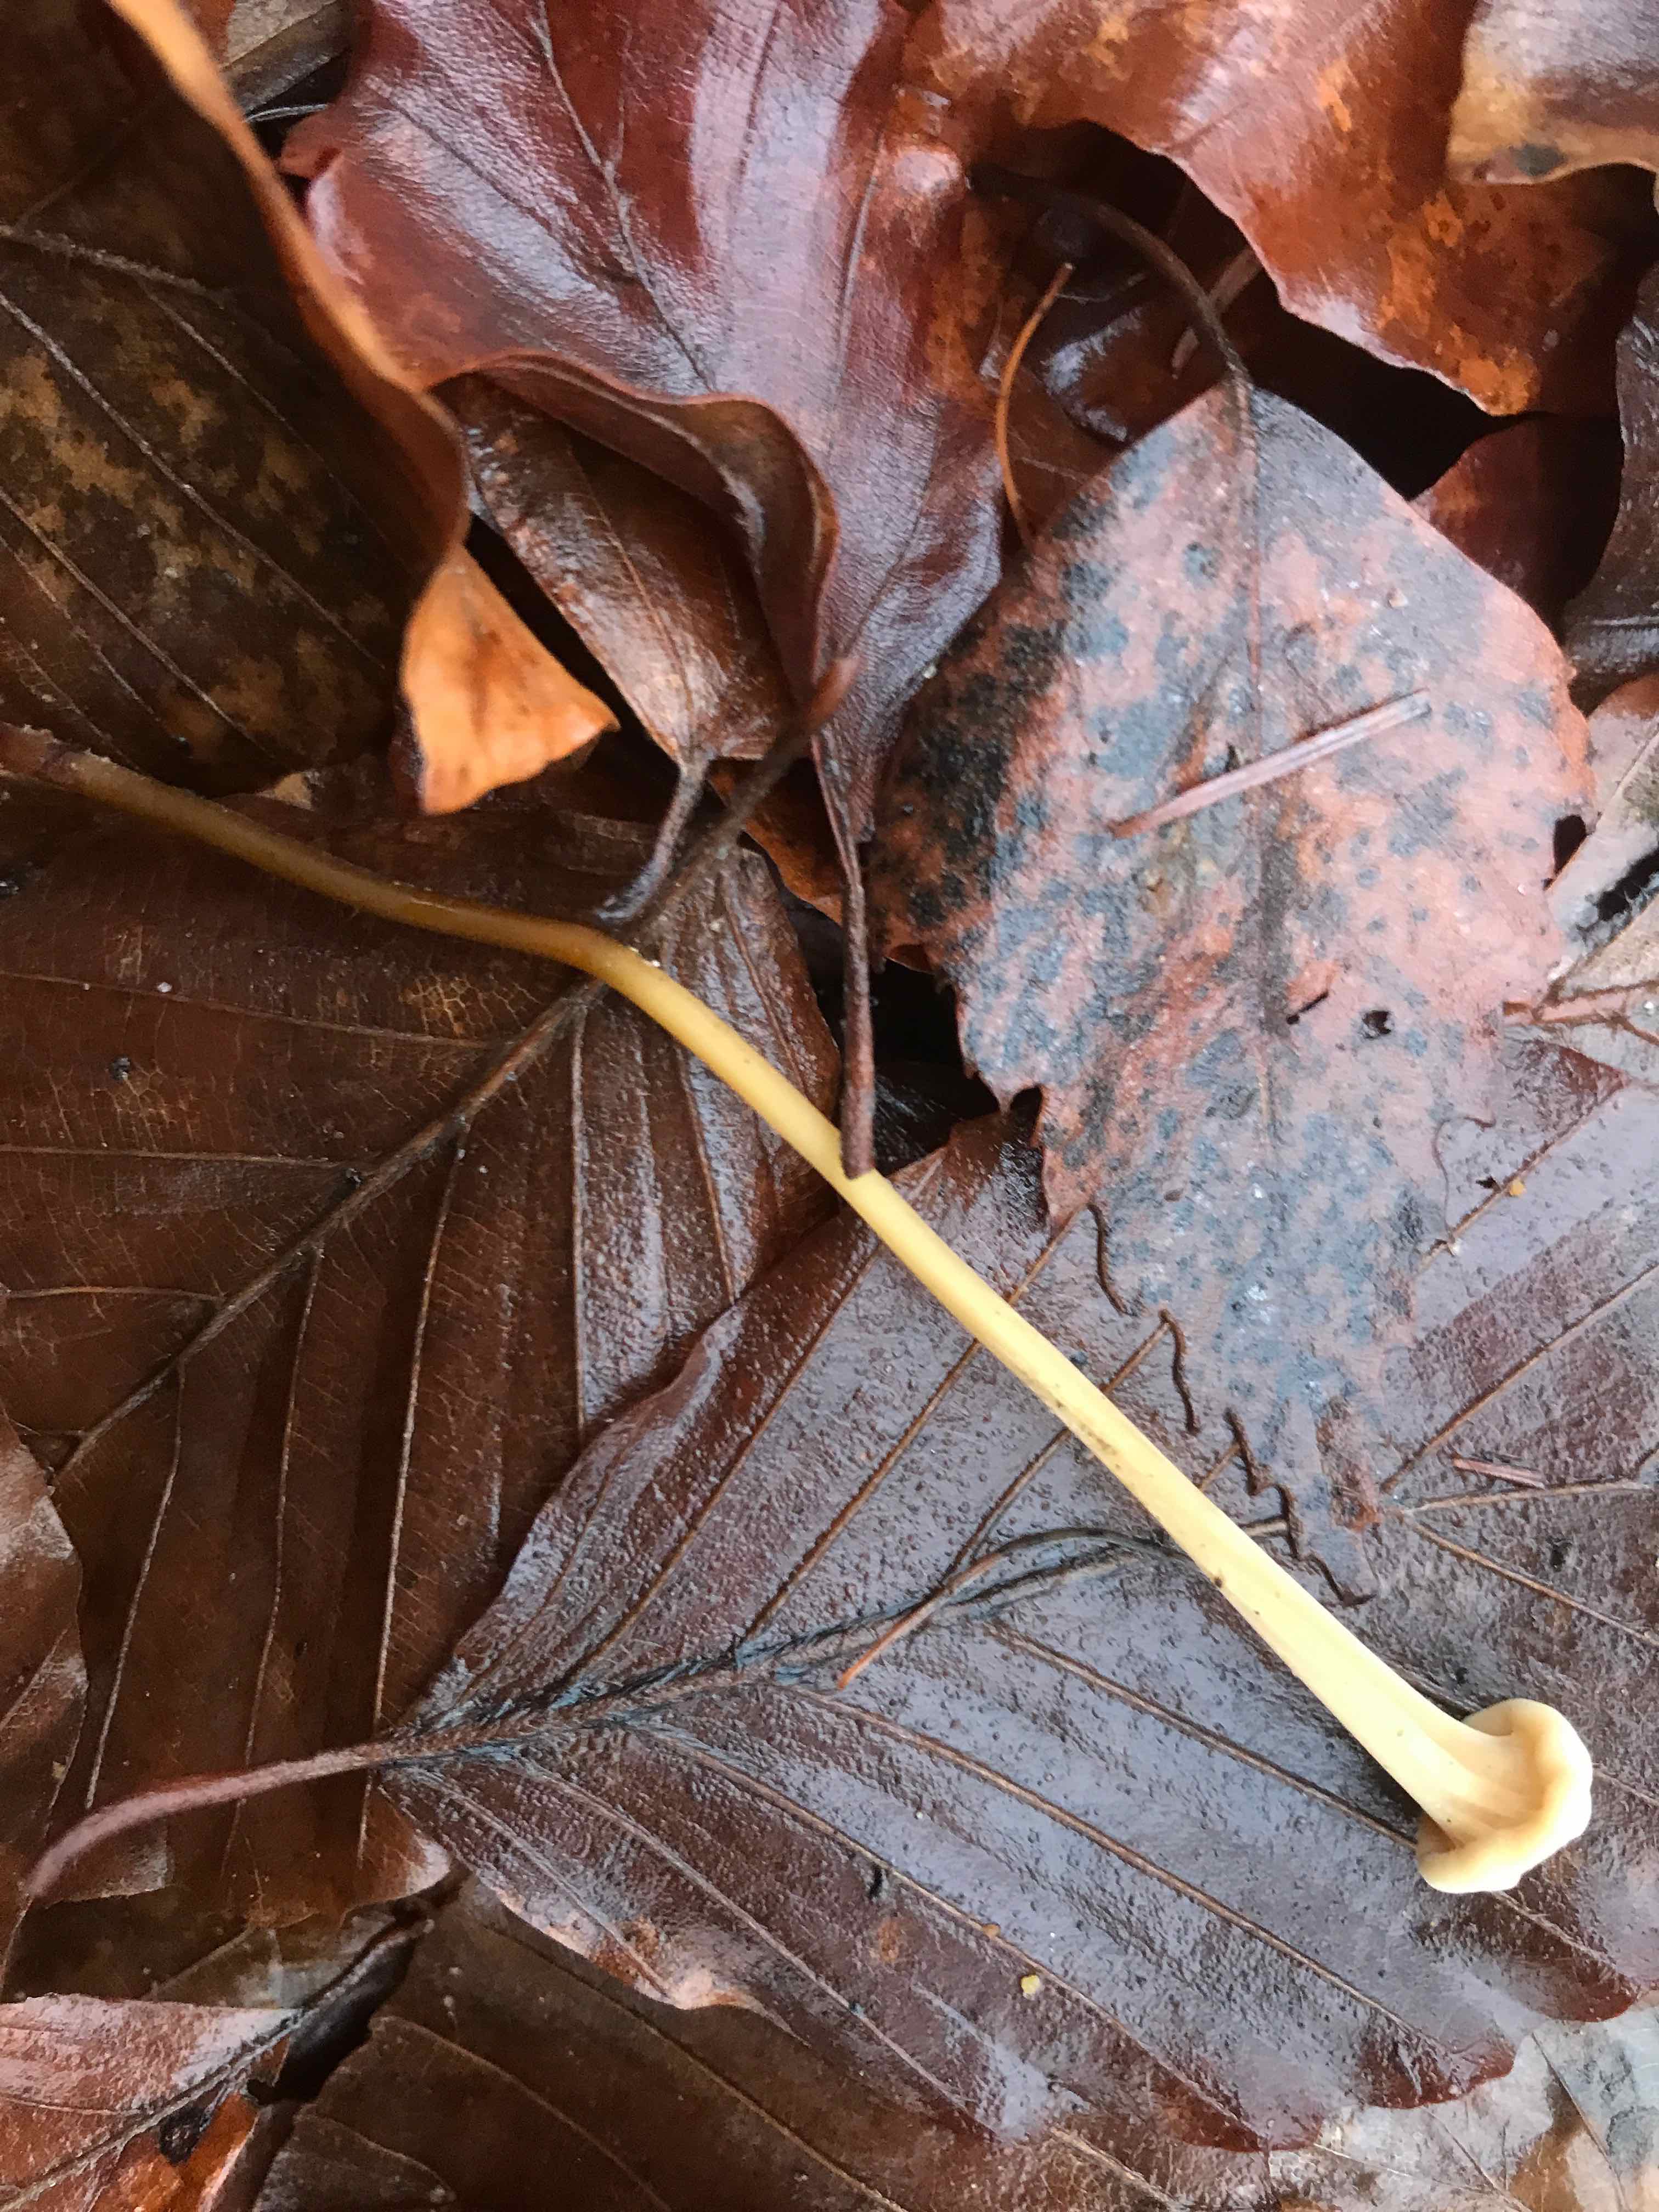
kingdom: Fungi
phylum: Basidiomycota
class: Agaricomycetes
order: Agaricales
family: Typhulaceae
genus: Typhula
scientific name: Typhula fistulosa
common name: pibet rørkølle
